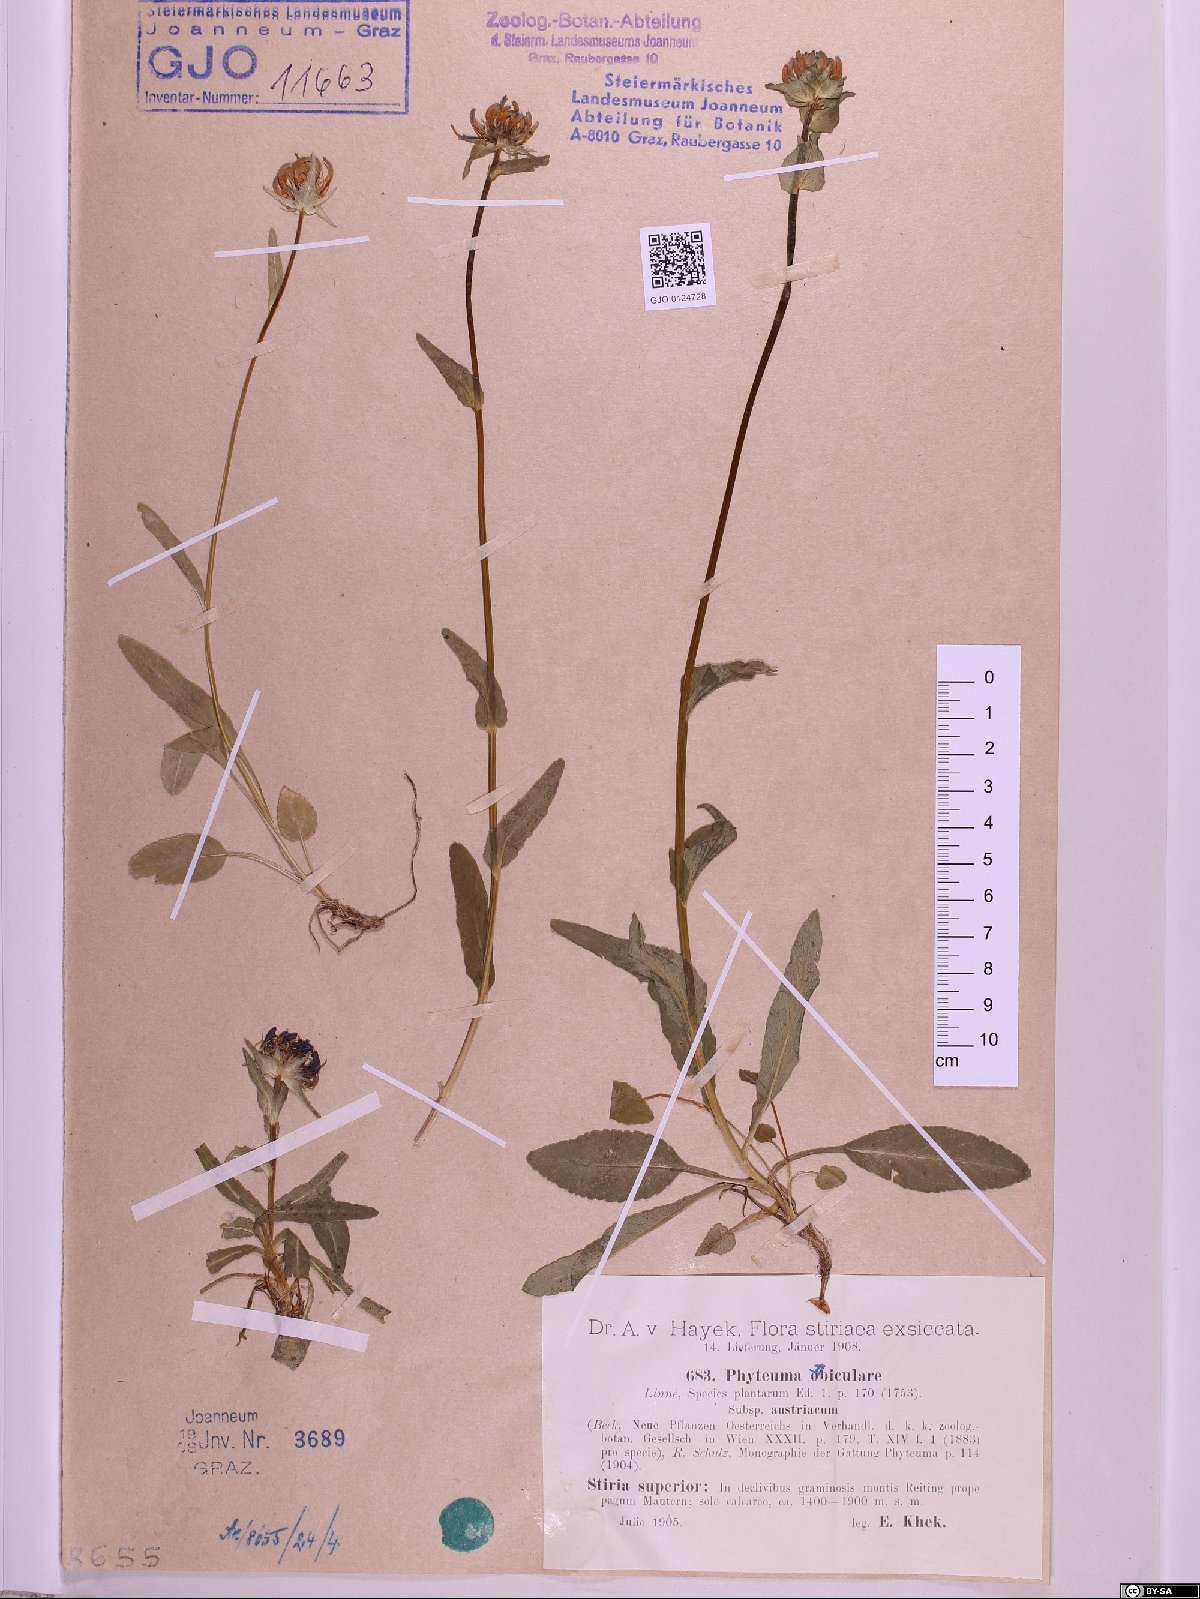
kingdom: Plantae
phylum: Tracheophyta
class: Magnoliopsida
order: Asterales
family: Campanulaceae
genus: Phyteuma
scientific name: Phyteuma orbiculare
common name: Round-headed rampion
